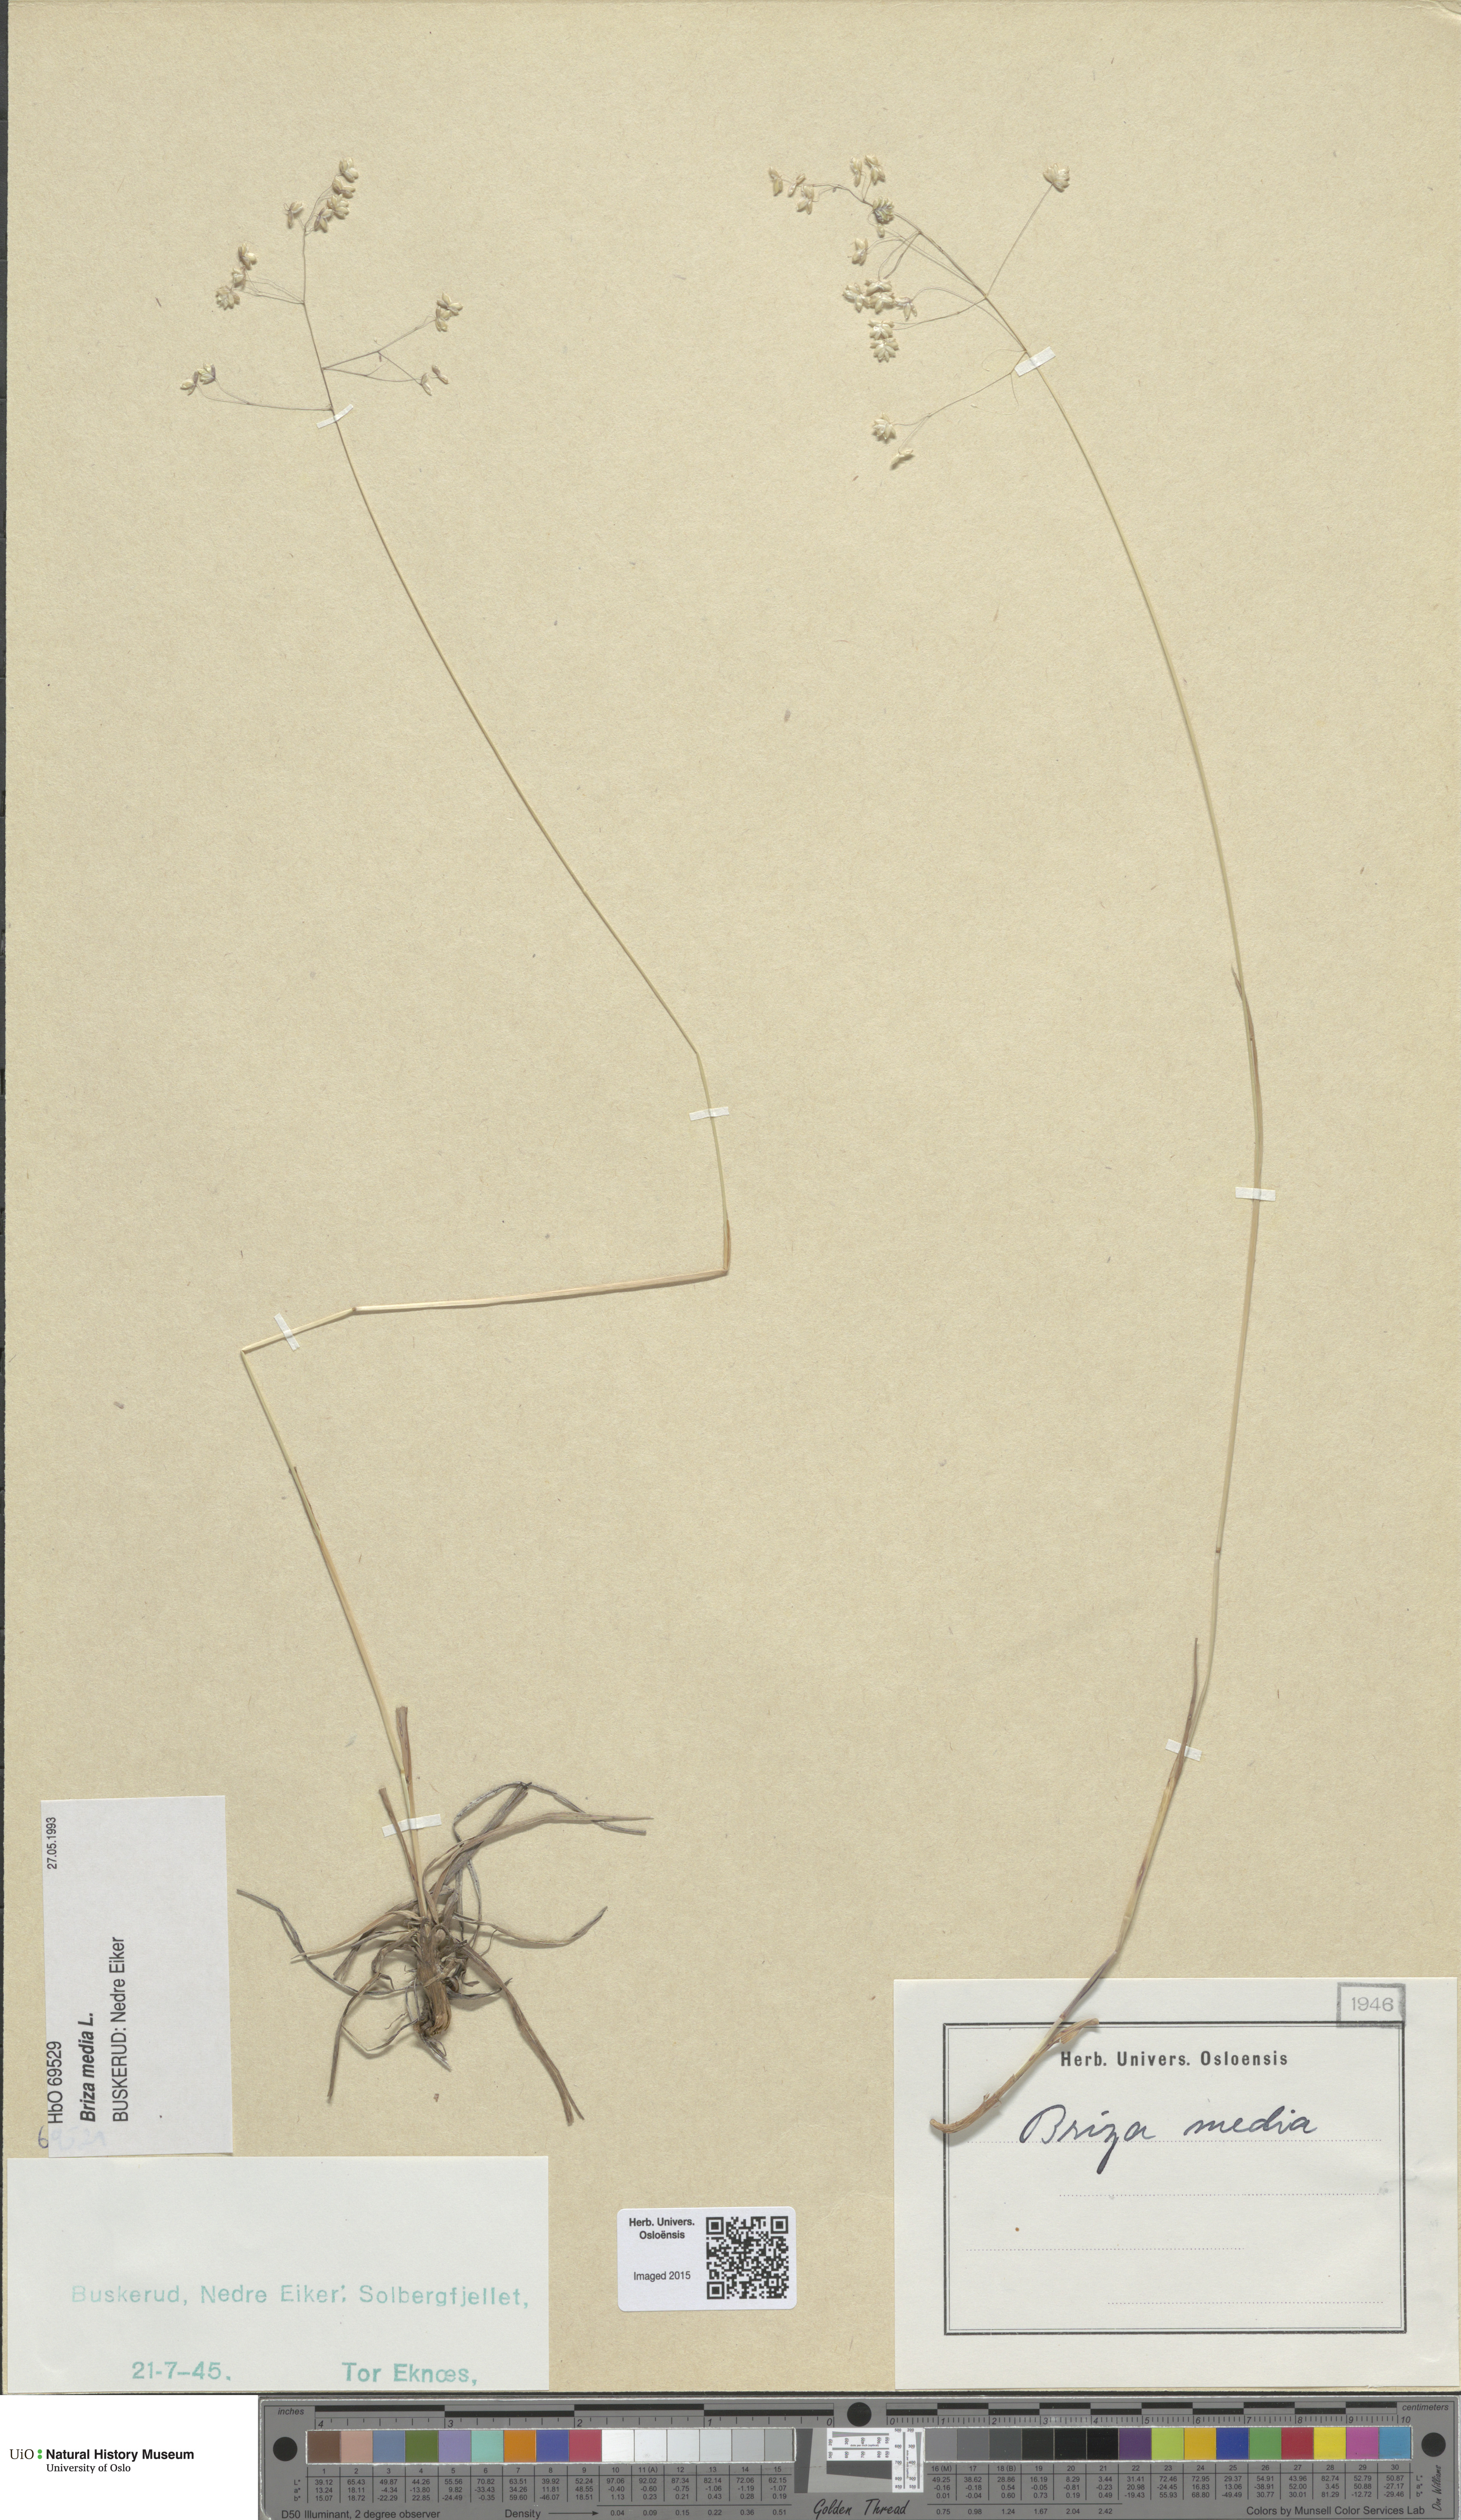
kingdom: Plantae
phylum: Tracheophyta
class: Liliopsida
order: Poales
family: Poaceae
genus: Briza
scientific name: Briza media
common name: Quaking grass
